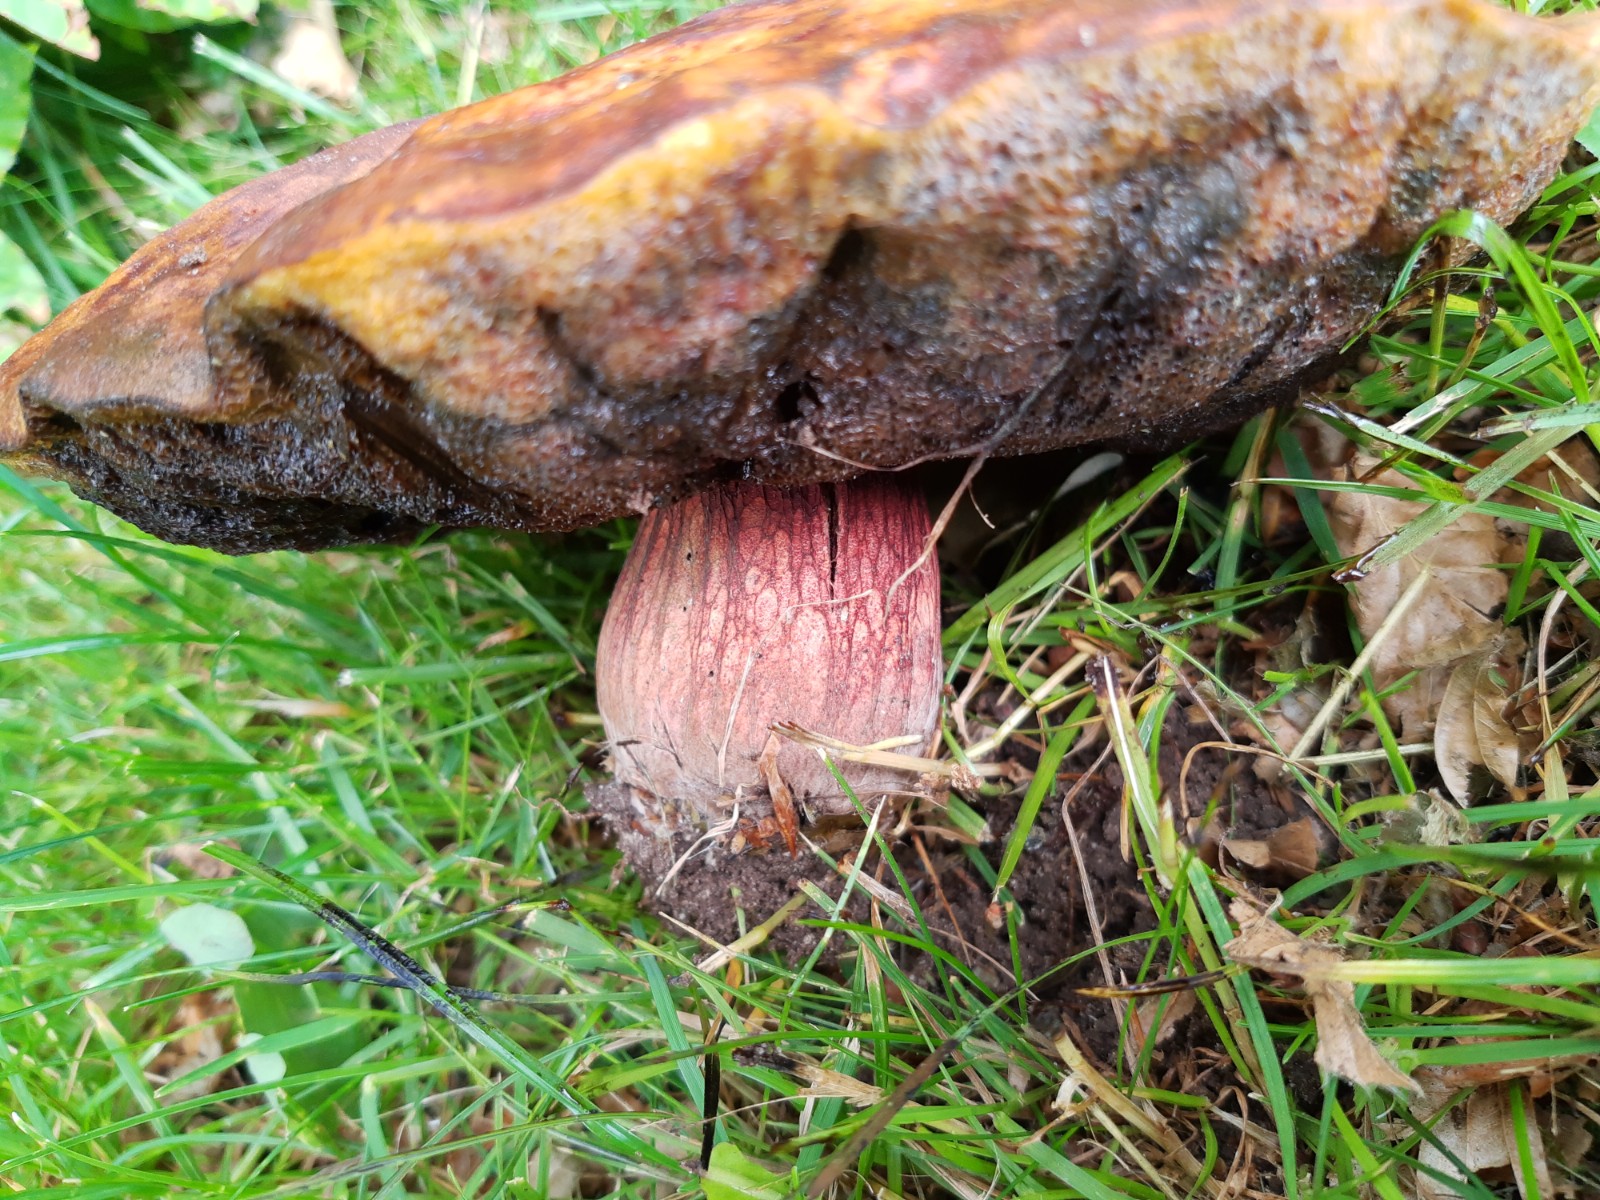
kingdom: Fungi
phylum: Basidiomycota
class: Agaricomycetes
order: Boletales
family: Boletaceae
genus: Suillellus
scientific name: Suillellus luridus
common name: netstokket indigorørhat
